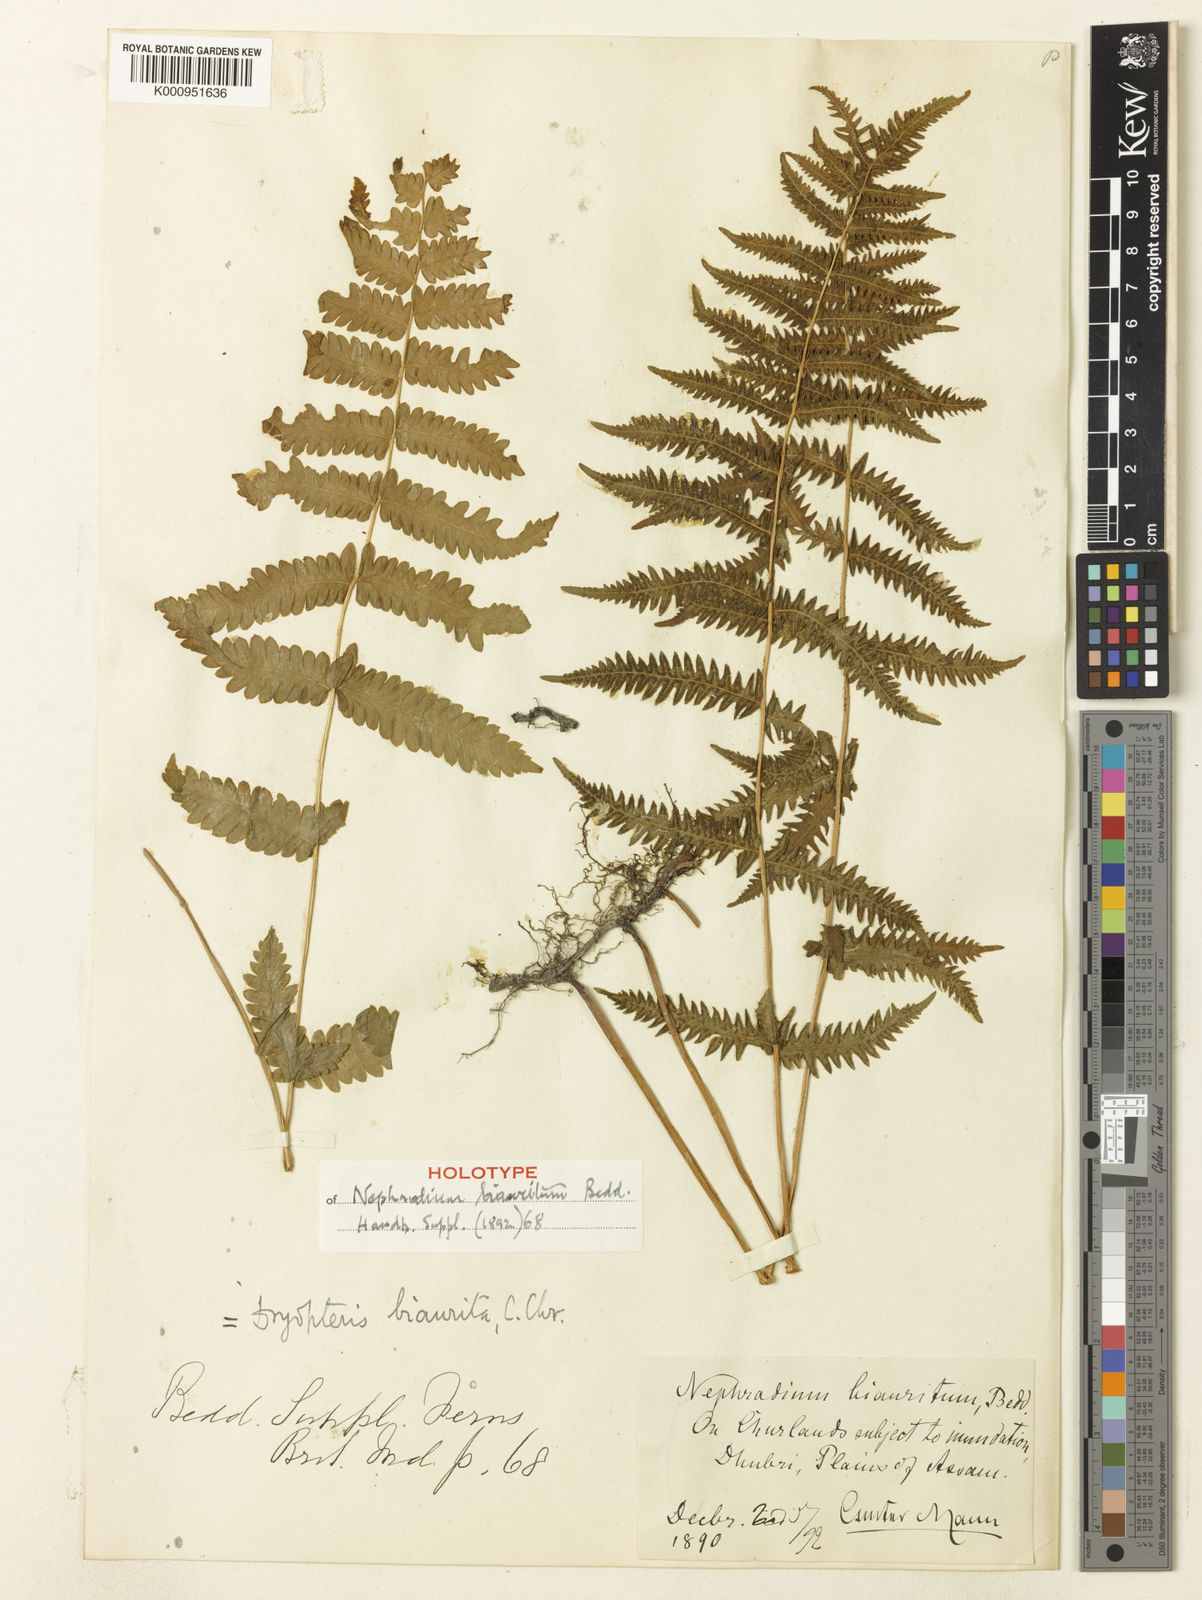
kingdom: Plantae
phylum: Tracheophyta
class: Polypodiopsida
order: Polypodiales
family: Thelypteridaceae
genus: Christella
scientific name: Christella lebeufii
